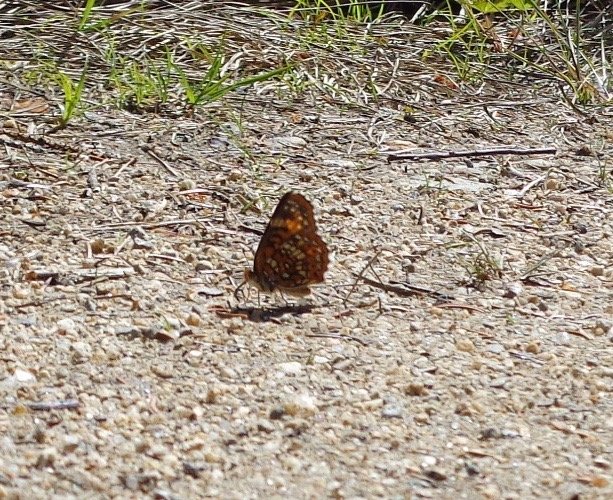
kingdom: Animalia
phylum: Arthropoda
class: Insecta
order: Lepidoptera
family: Nymphalidae
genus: Chlosyne
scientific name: Chlosyne harrisii
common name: Harris's Checkerspot
